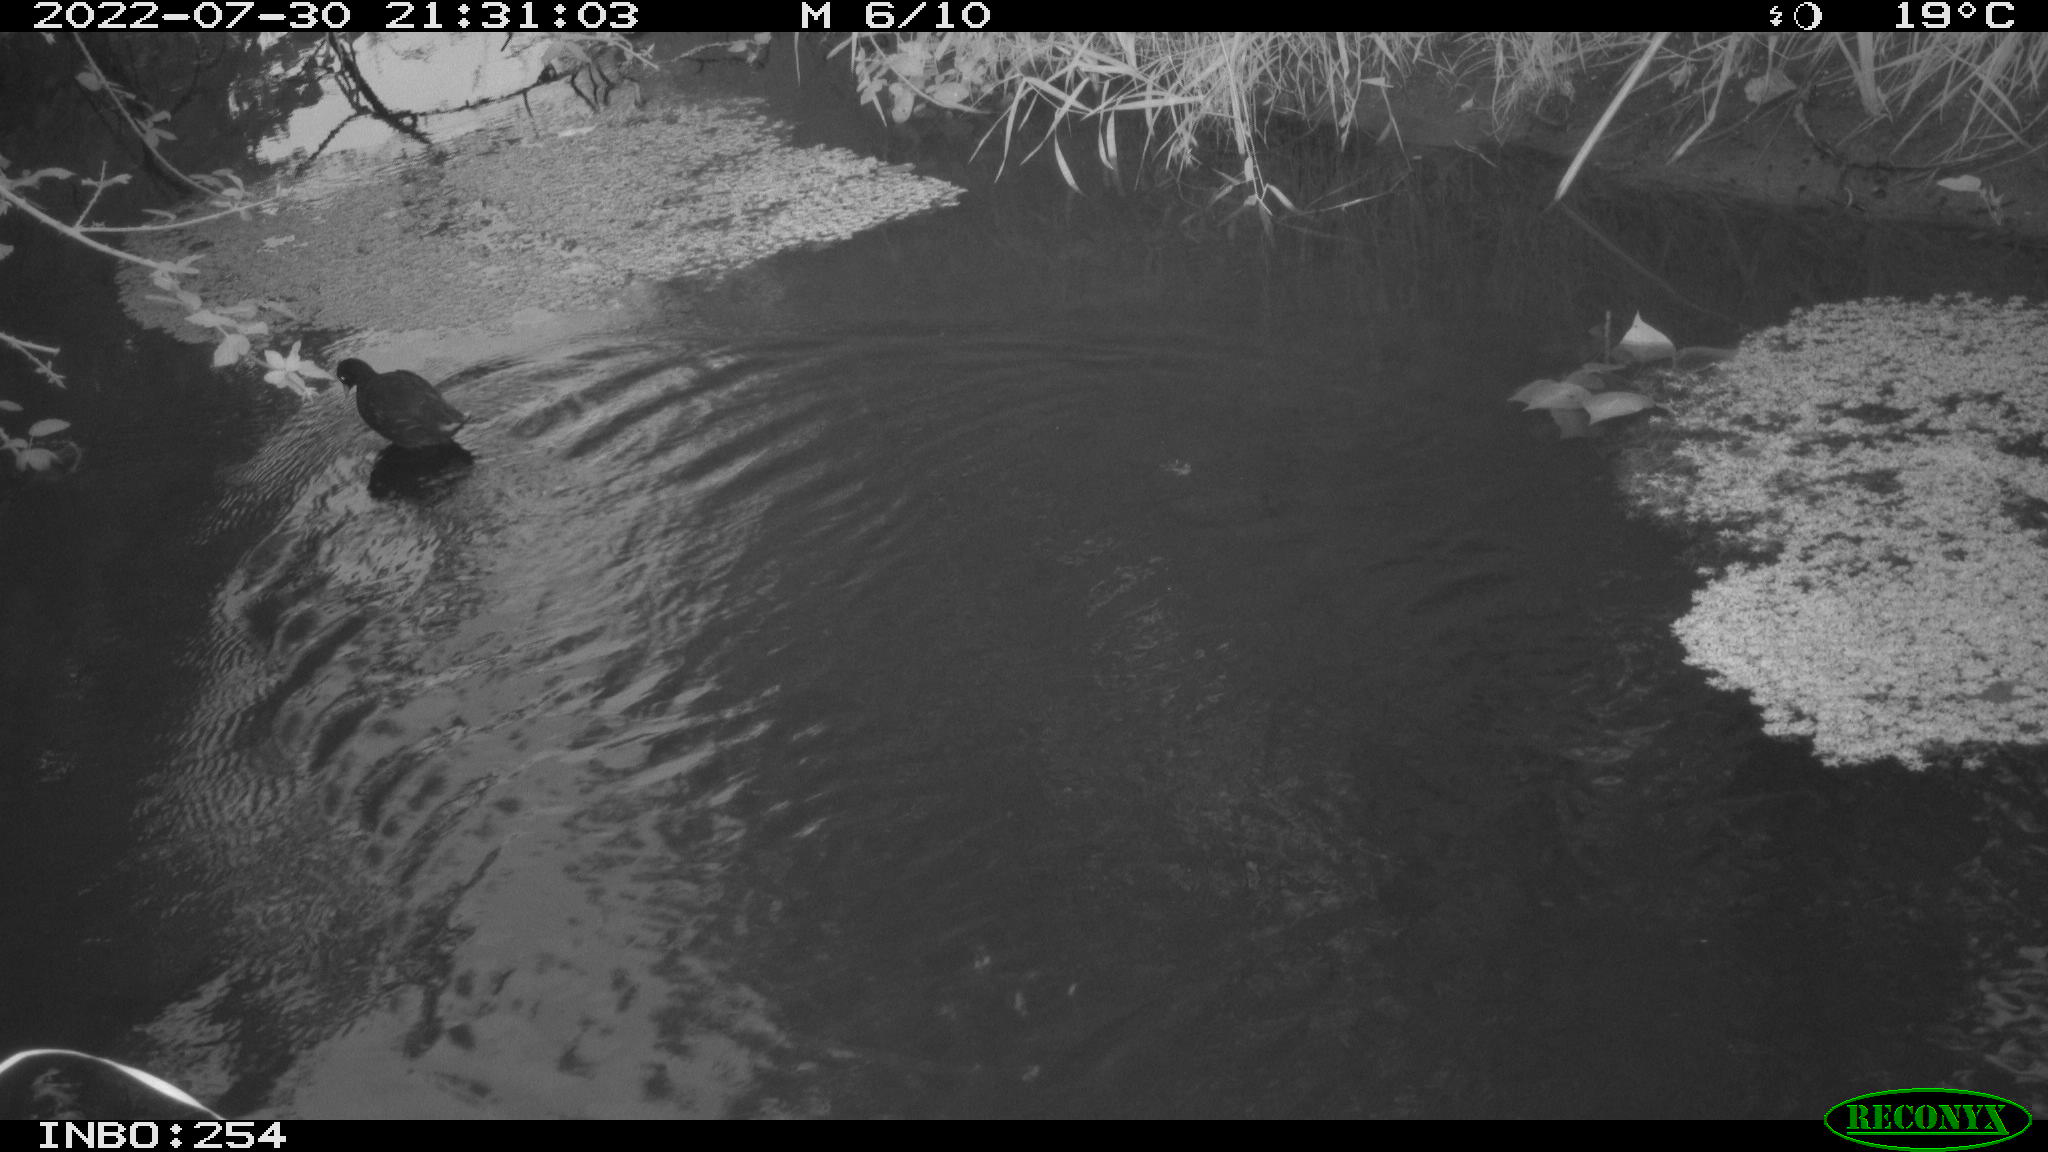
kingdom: Animalia
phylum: Chordata
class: Aves
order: Gruiformes
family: Rallidae
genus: Gallinula
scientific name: Gallinula chloropus
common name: Common moorhen
